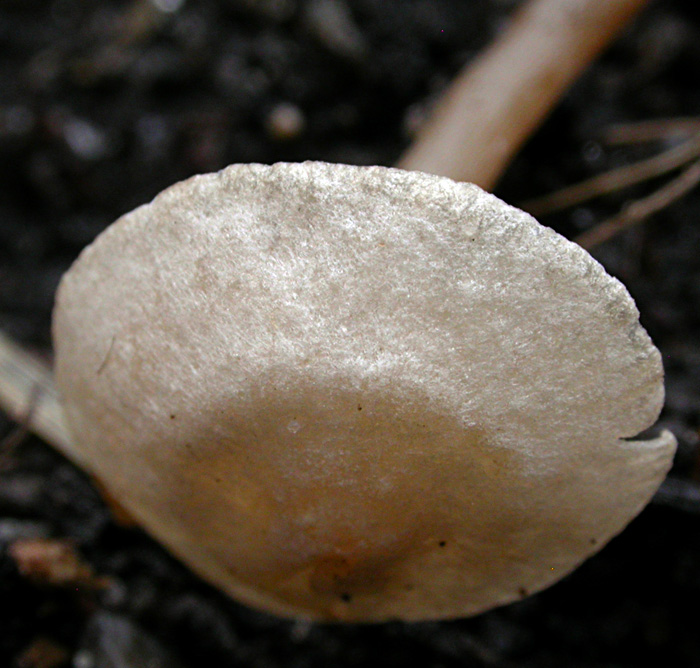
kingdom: Fungi
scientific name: Fungi
